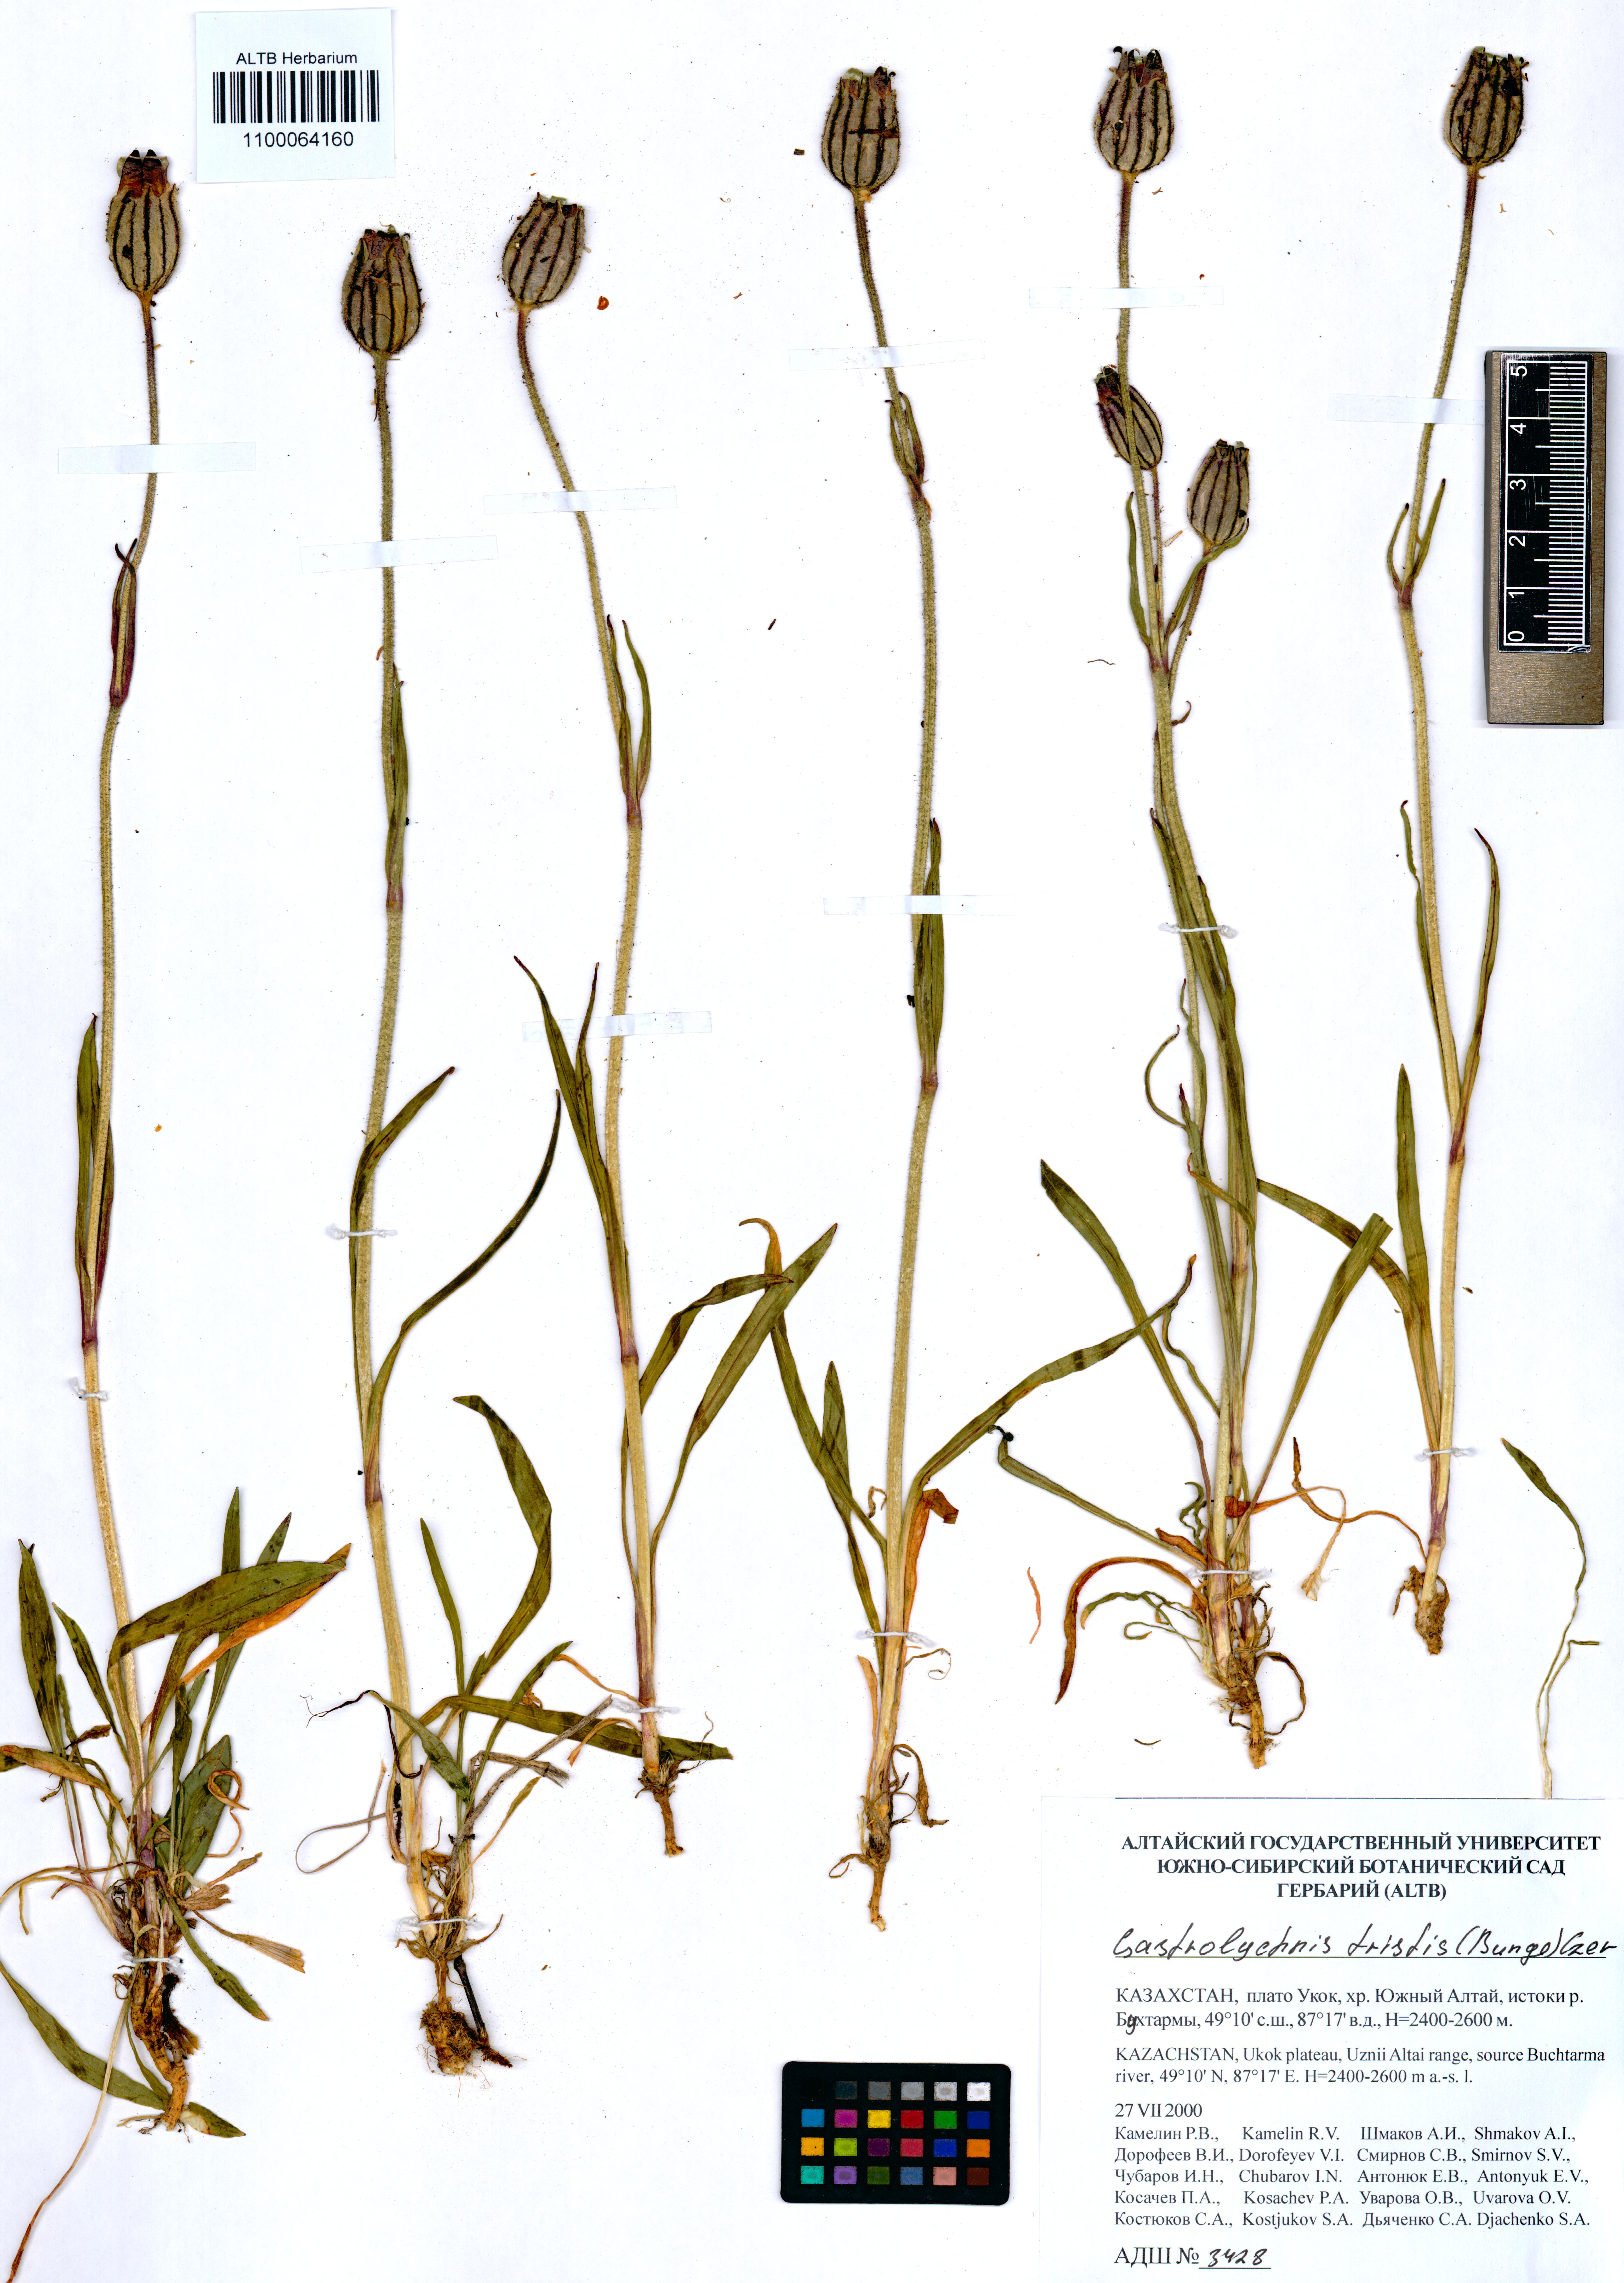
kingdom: Plantae
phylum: Tracheophyta
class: Magnoliopsida
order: Caryophyllales
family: Caryophyllaceae
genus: Silene
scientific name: Silene bungei
